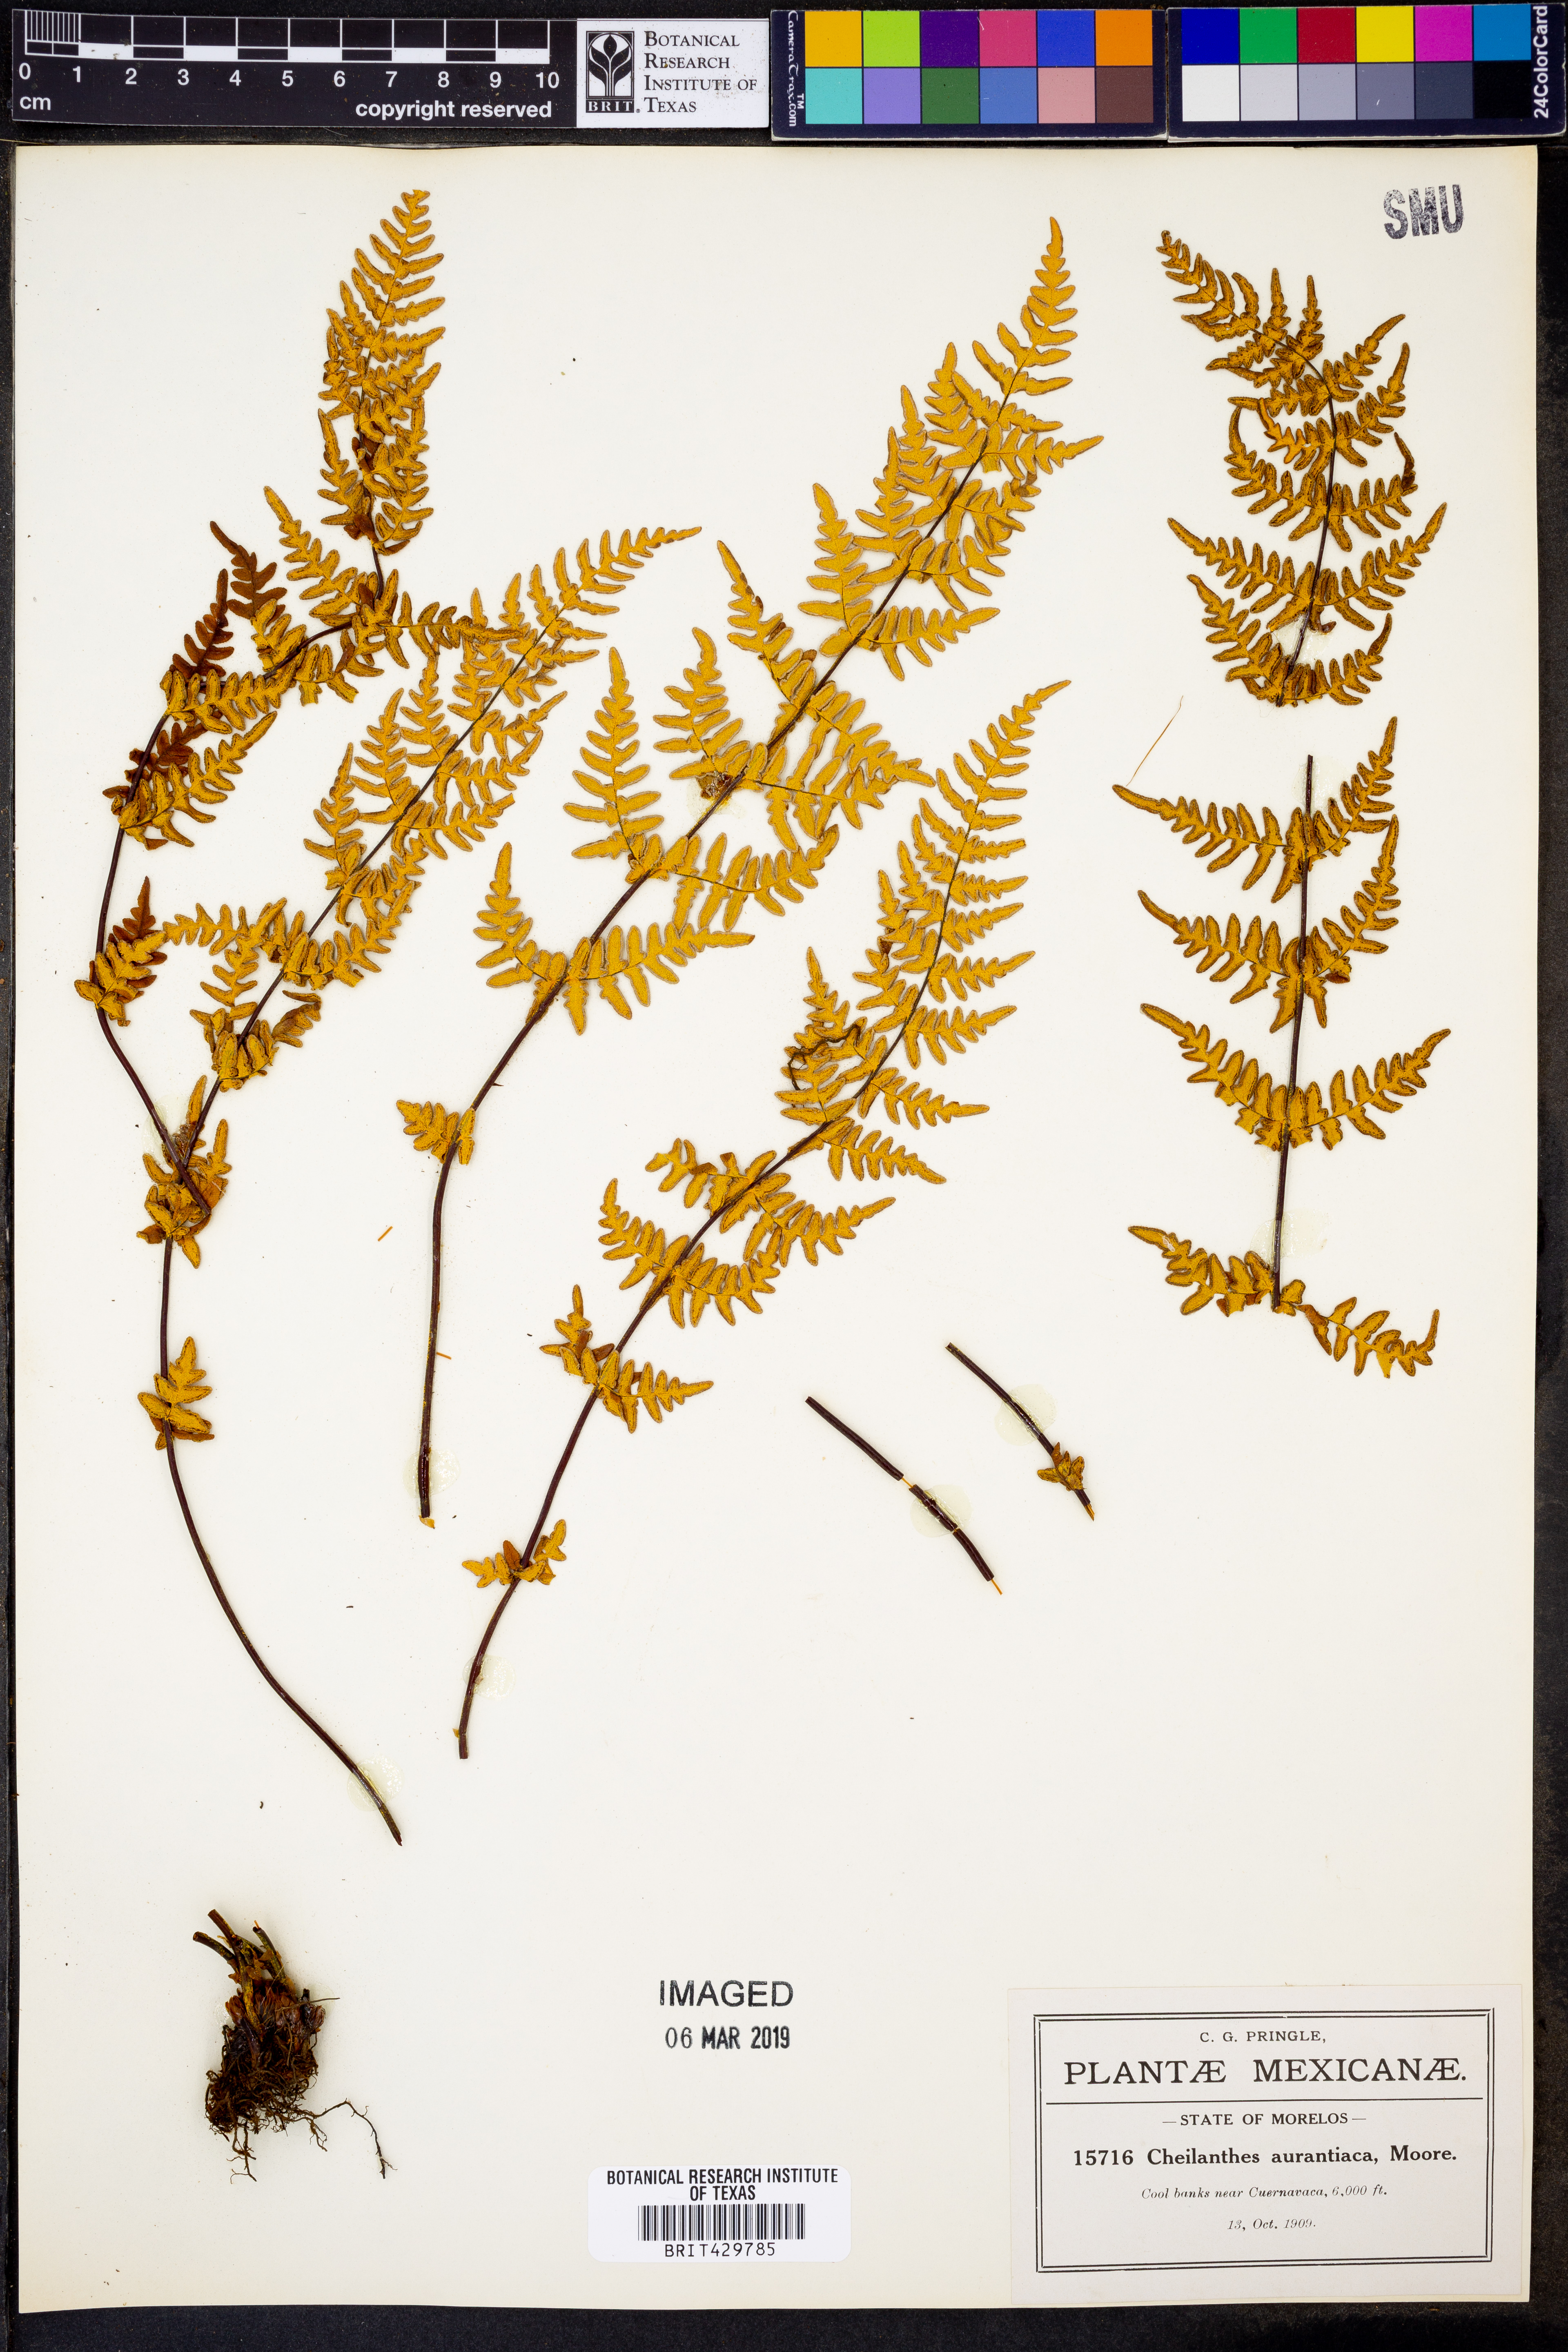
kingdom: Plantae
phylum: Tracheophyta
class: Polypodiopsida
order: Polypodiales
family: Pteridaceae
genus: Notholaena
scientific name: Notholaena ochracea
